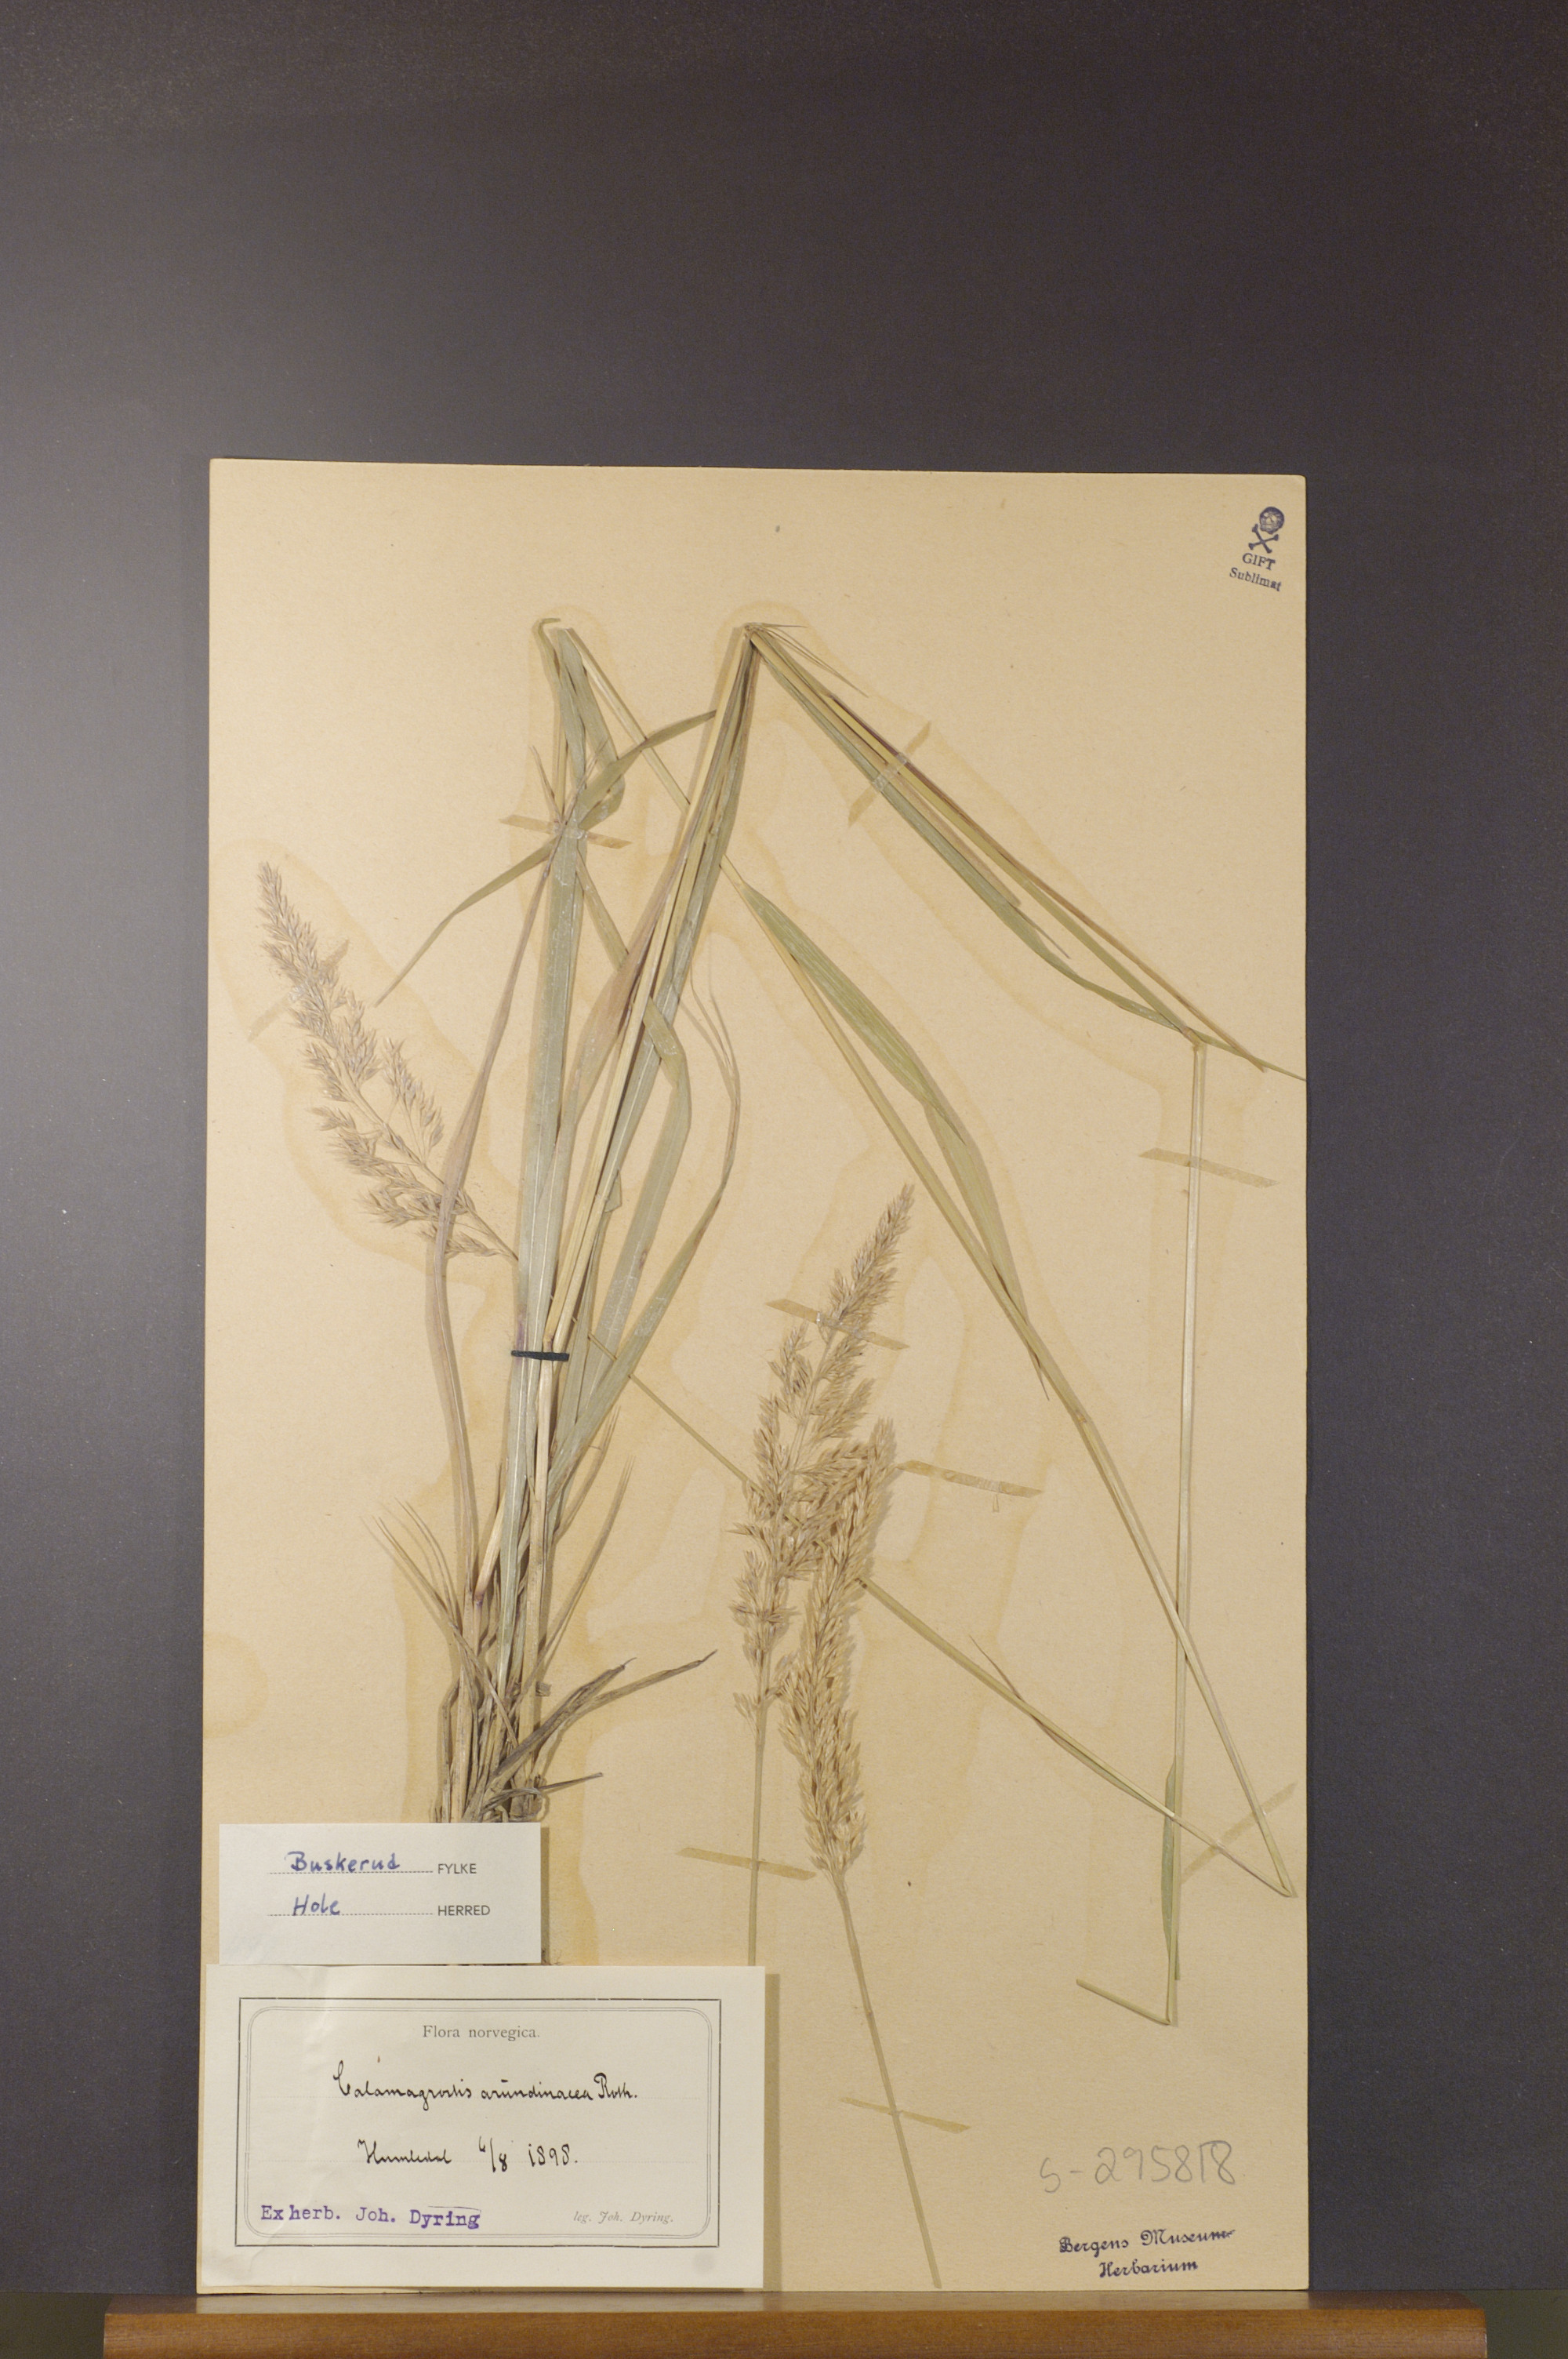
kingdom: Plantae
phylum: Tracheophyta
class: Liliopsida
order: Poales
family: Poaceae
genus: Calamagrostis
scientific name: Calamagrostis arundinacea
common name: Metskastik
